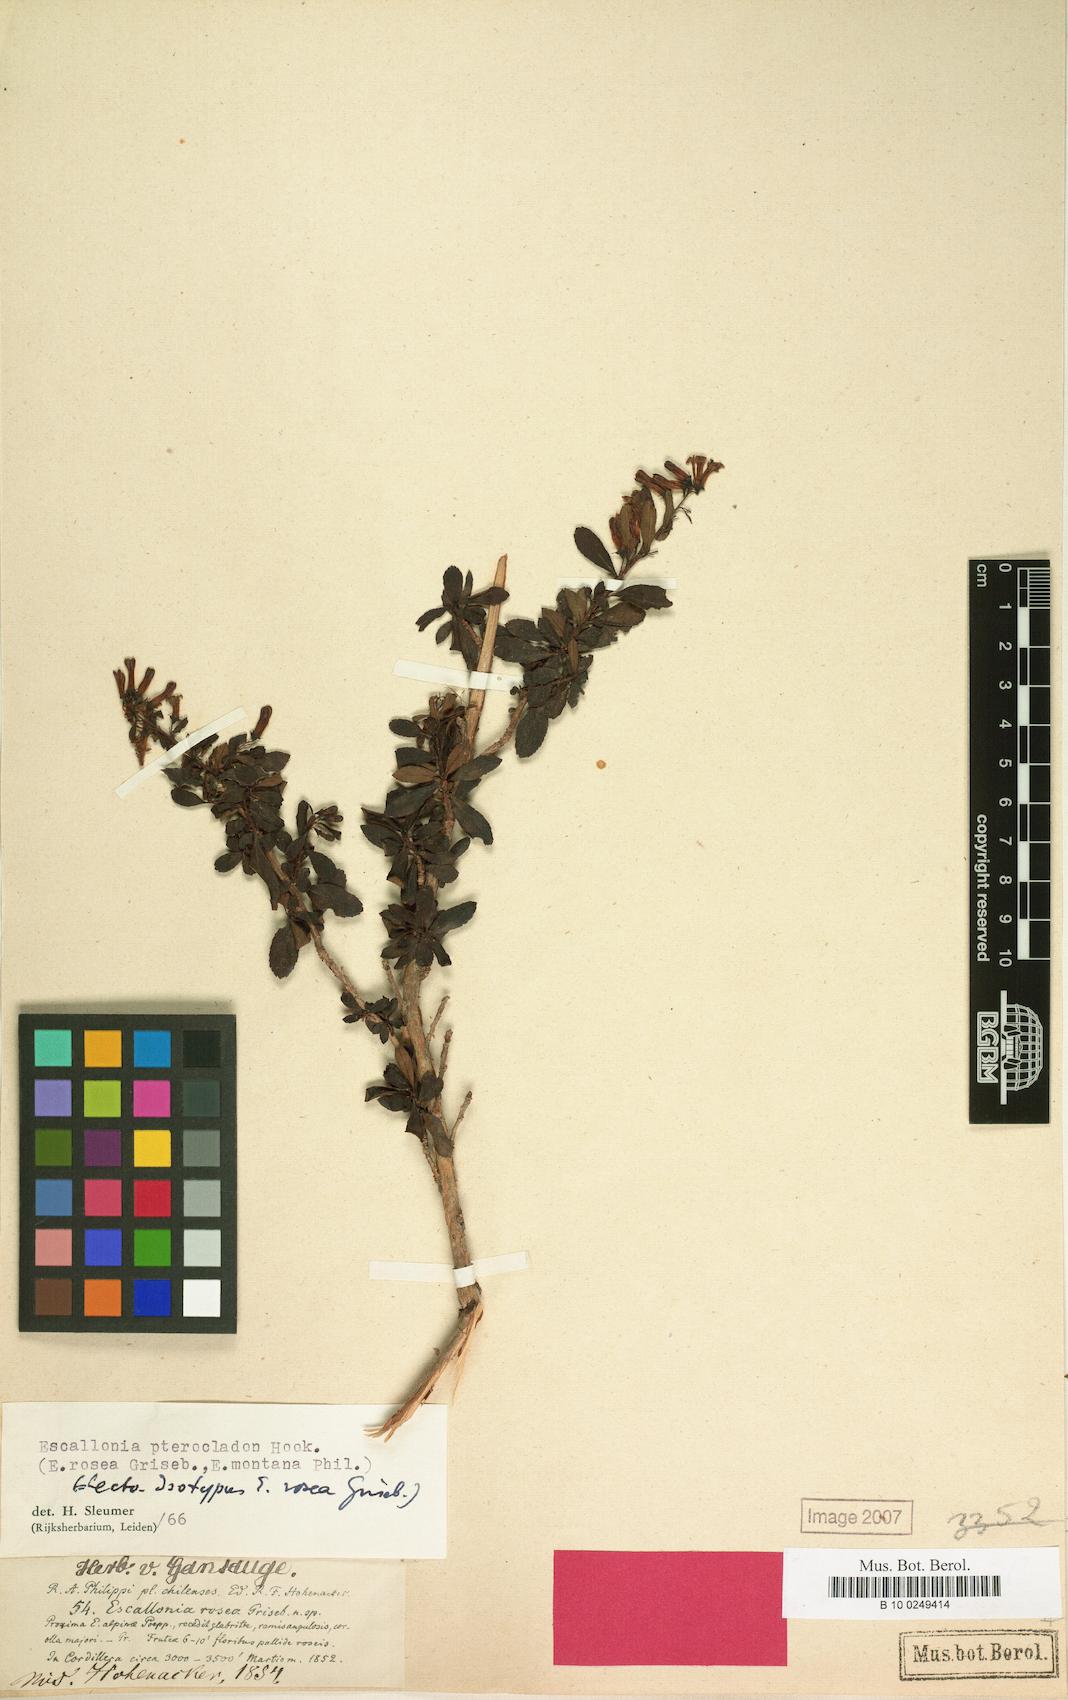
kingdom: Plantae
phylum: Tracheophyta
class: Magnoliopsida
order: Escalloniales
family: Escalloniaceae
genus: Escallonia
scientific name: Escallonia rosea
